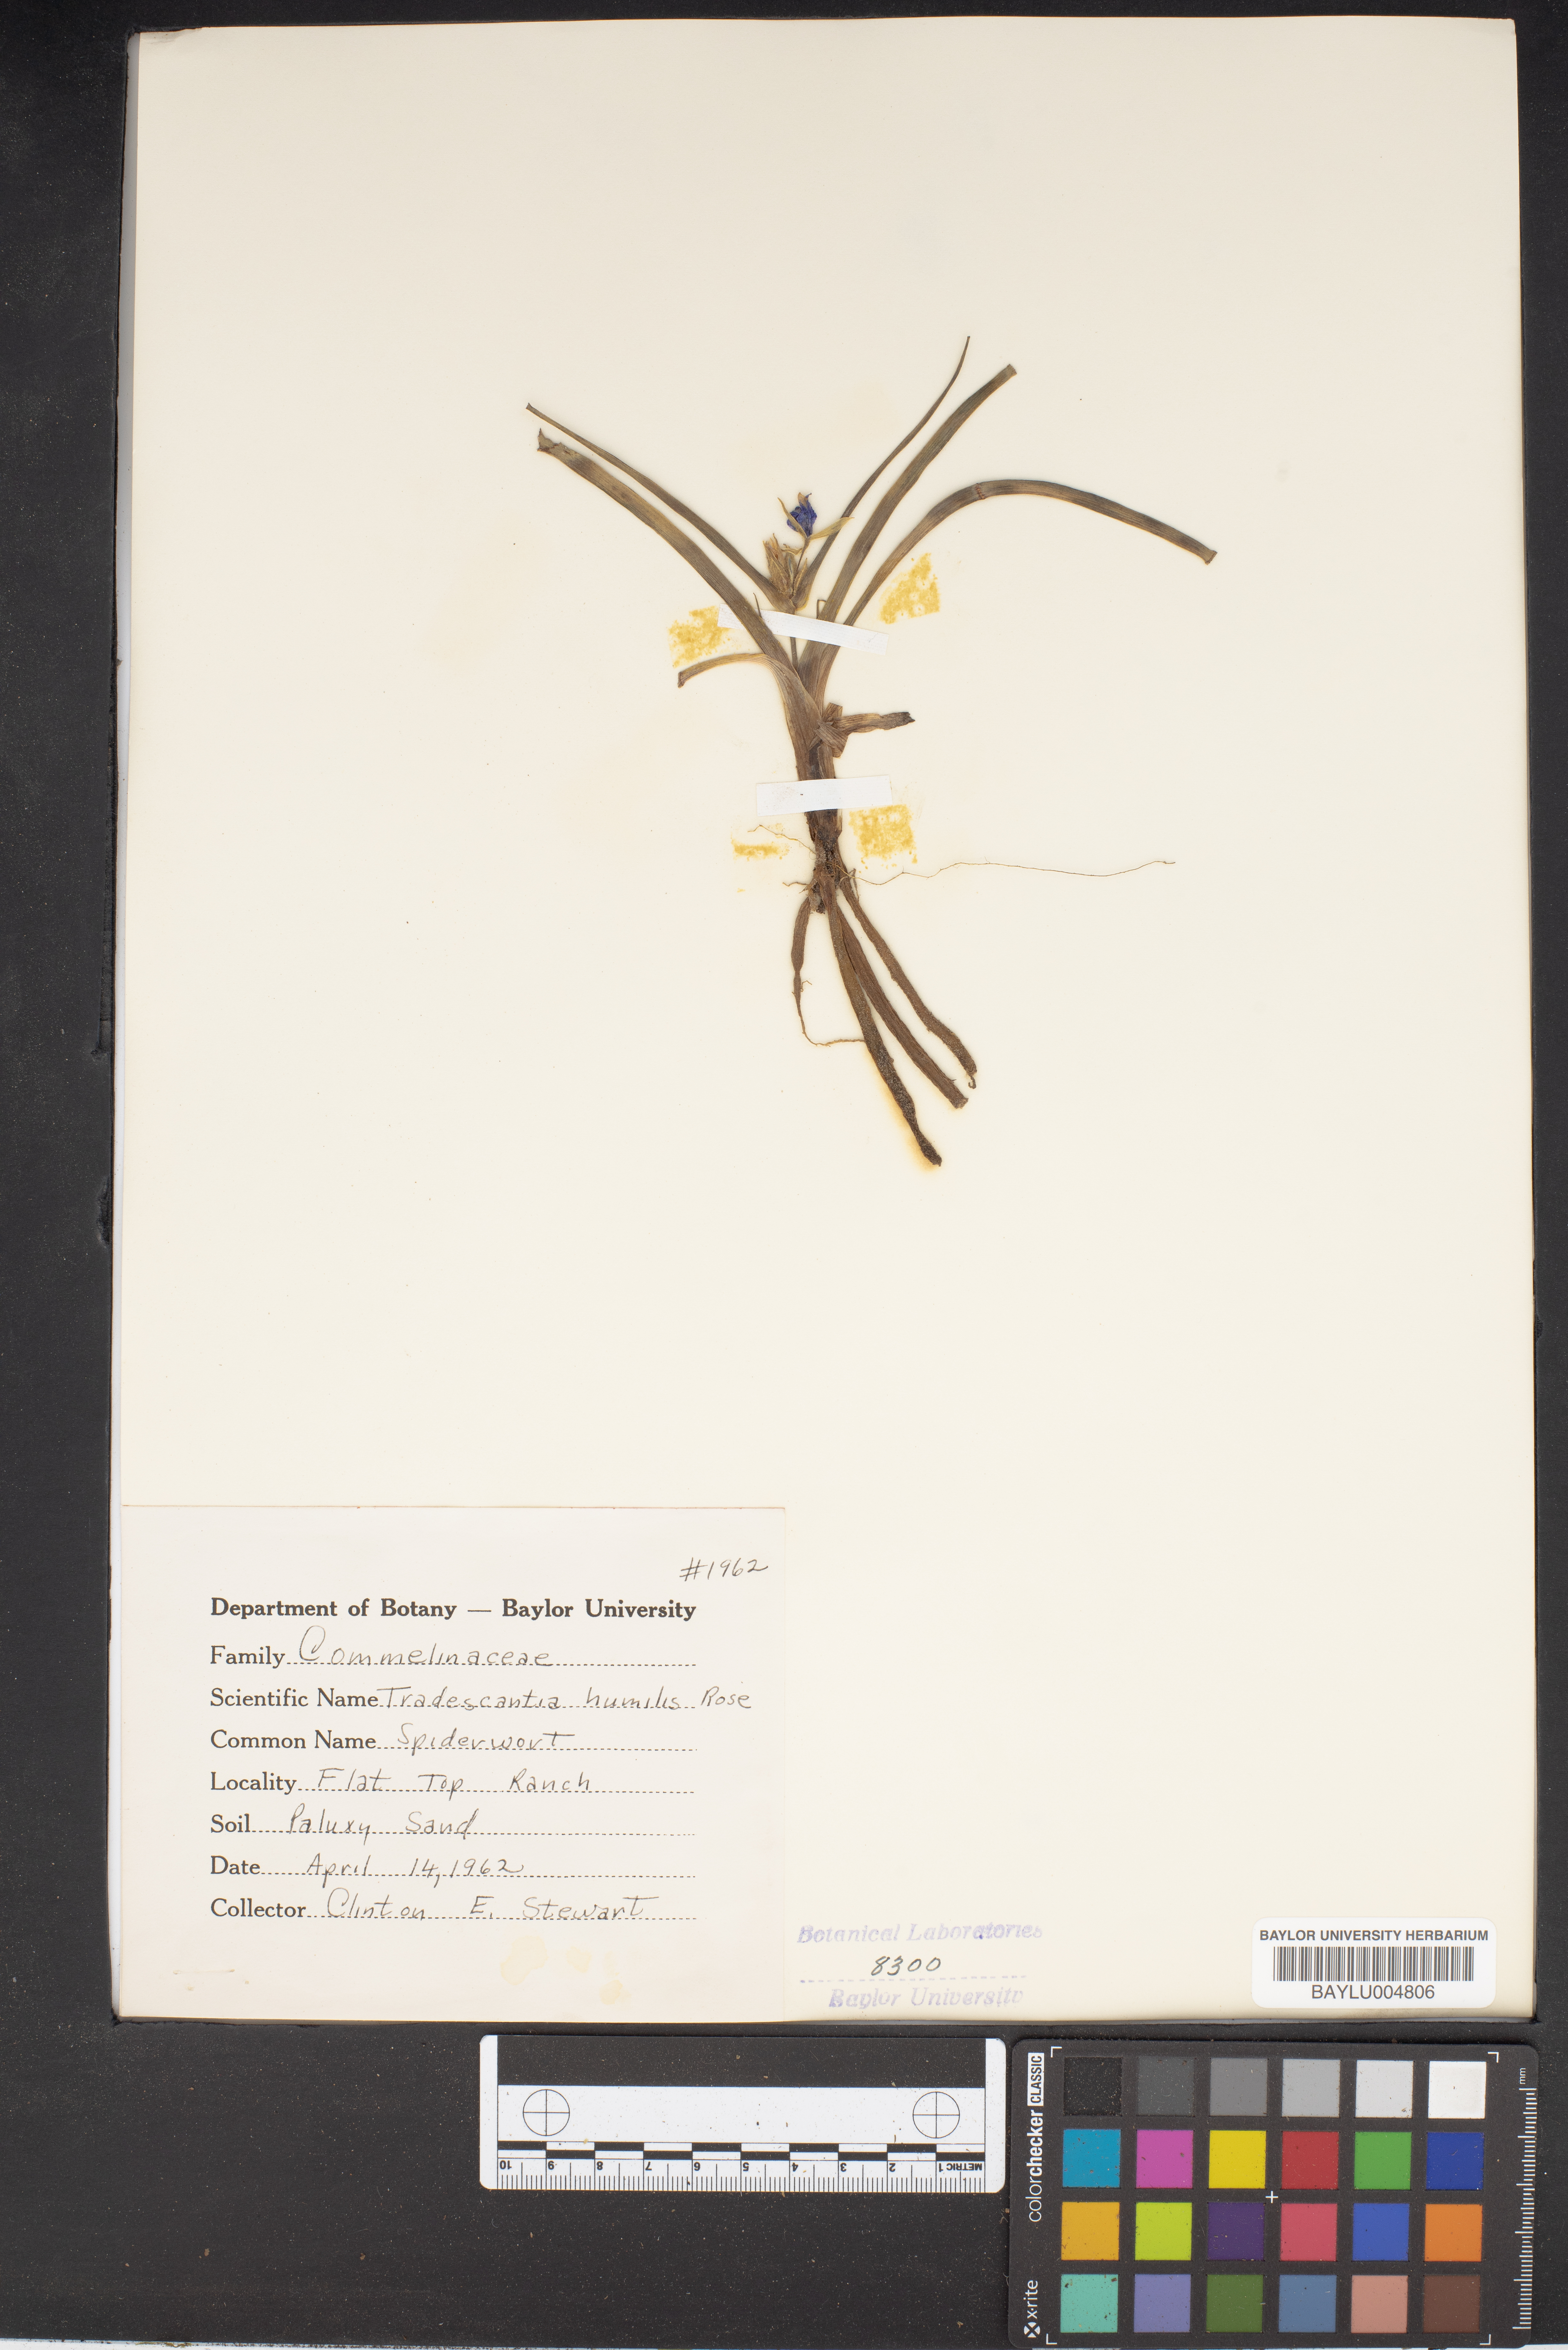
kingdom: Plantae
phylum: Tracheophyta
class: Liliopsida
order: Commelinales
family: Commelinaceae
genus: Tradescantia
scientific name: Tradescantia humilis
